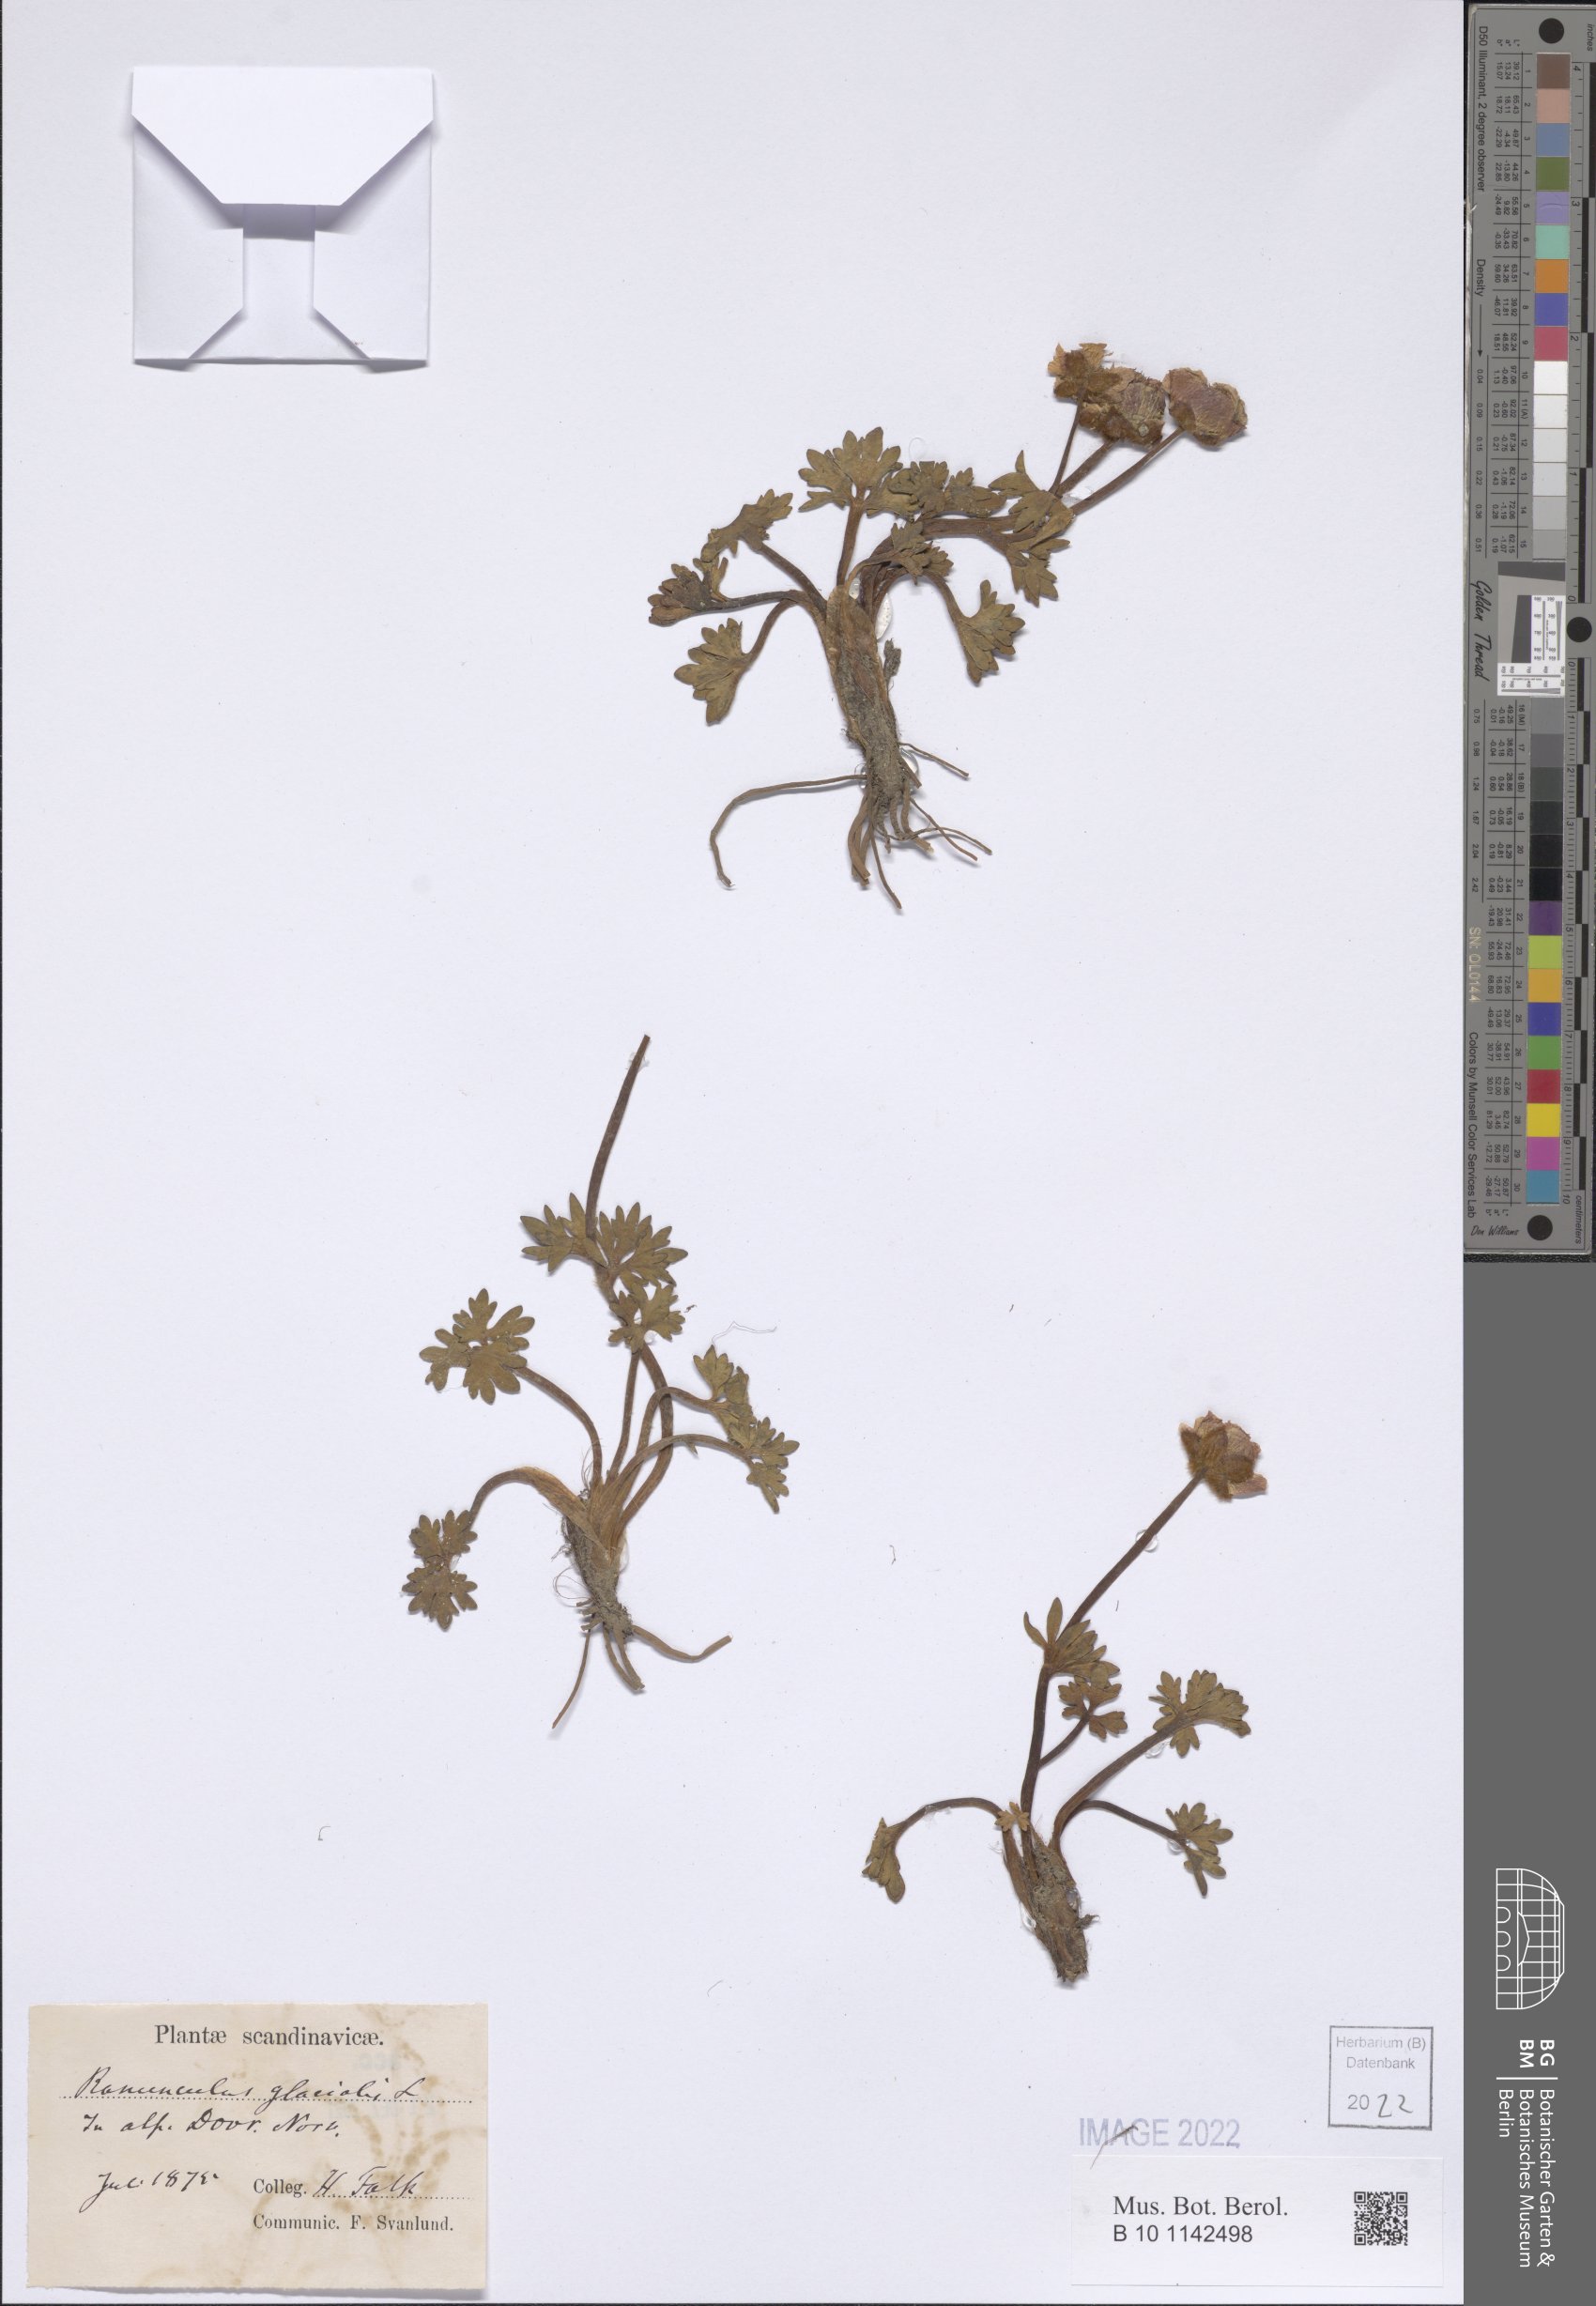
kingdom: Plantae
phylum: Tracheophyta
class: Magnoliopsida
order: Ranunculales
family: Ranunculaceae
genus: Ranunculus
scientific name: Ranunculus glacialis
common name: Glacier buttercup
